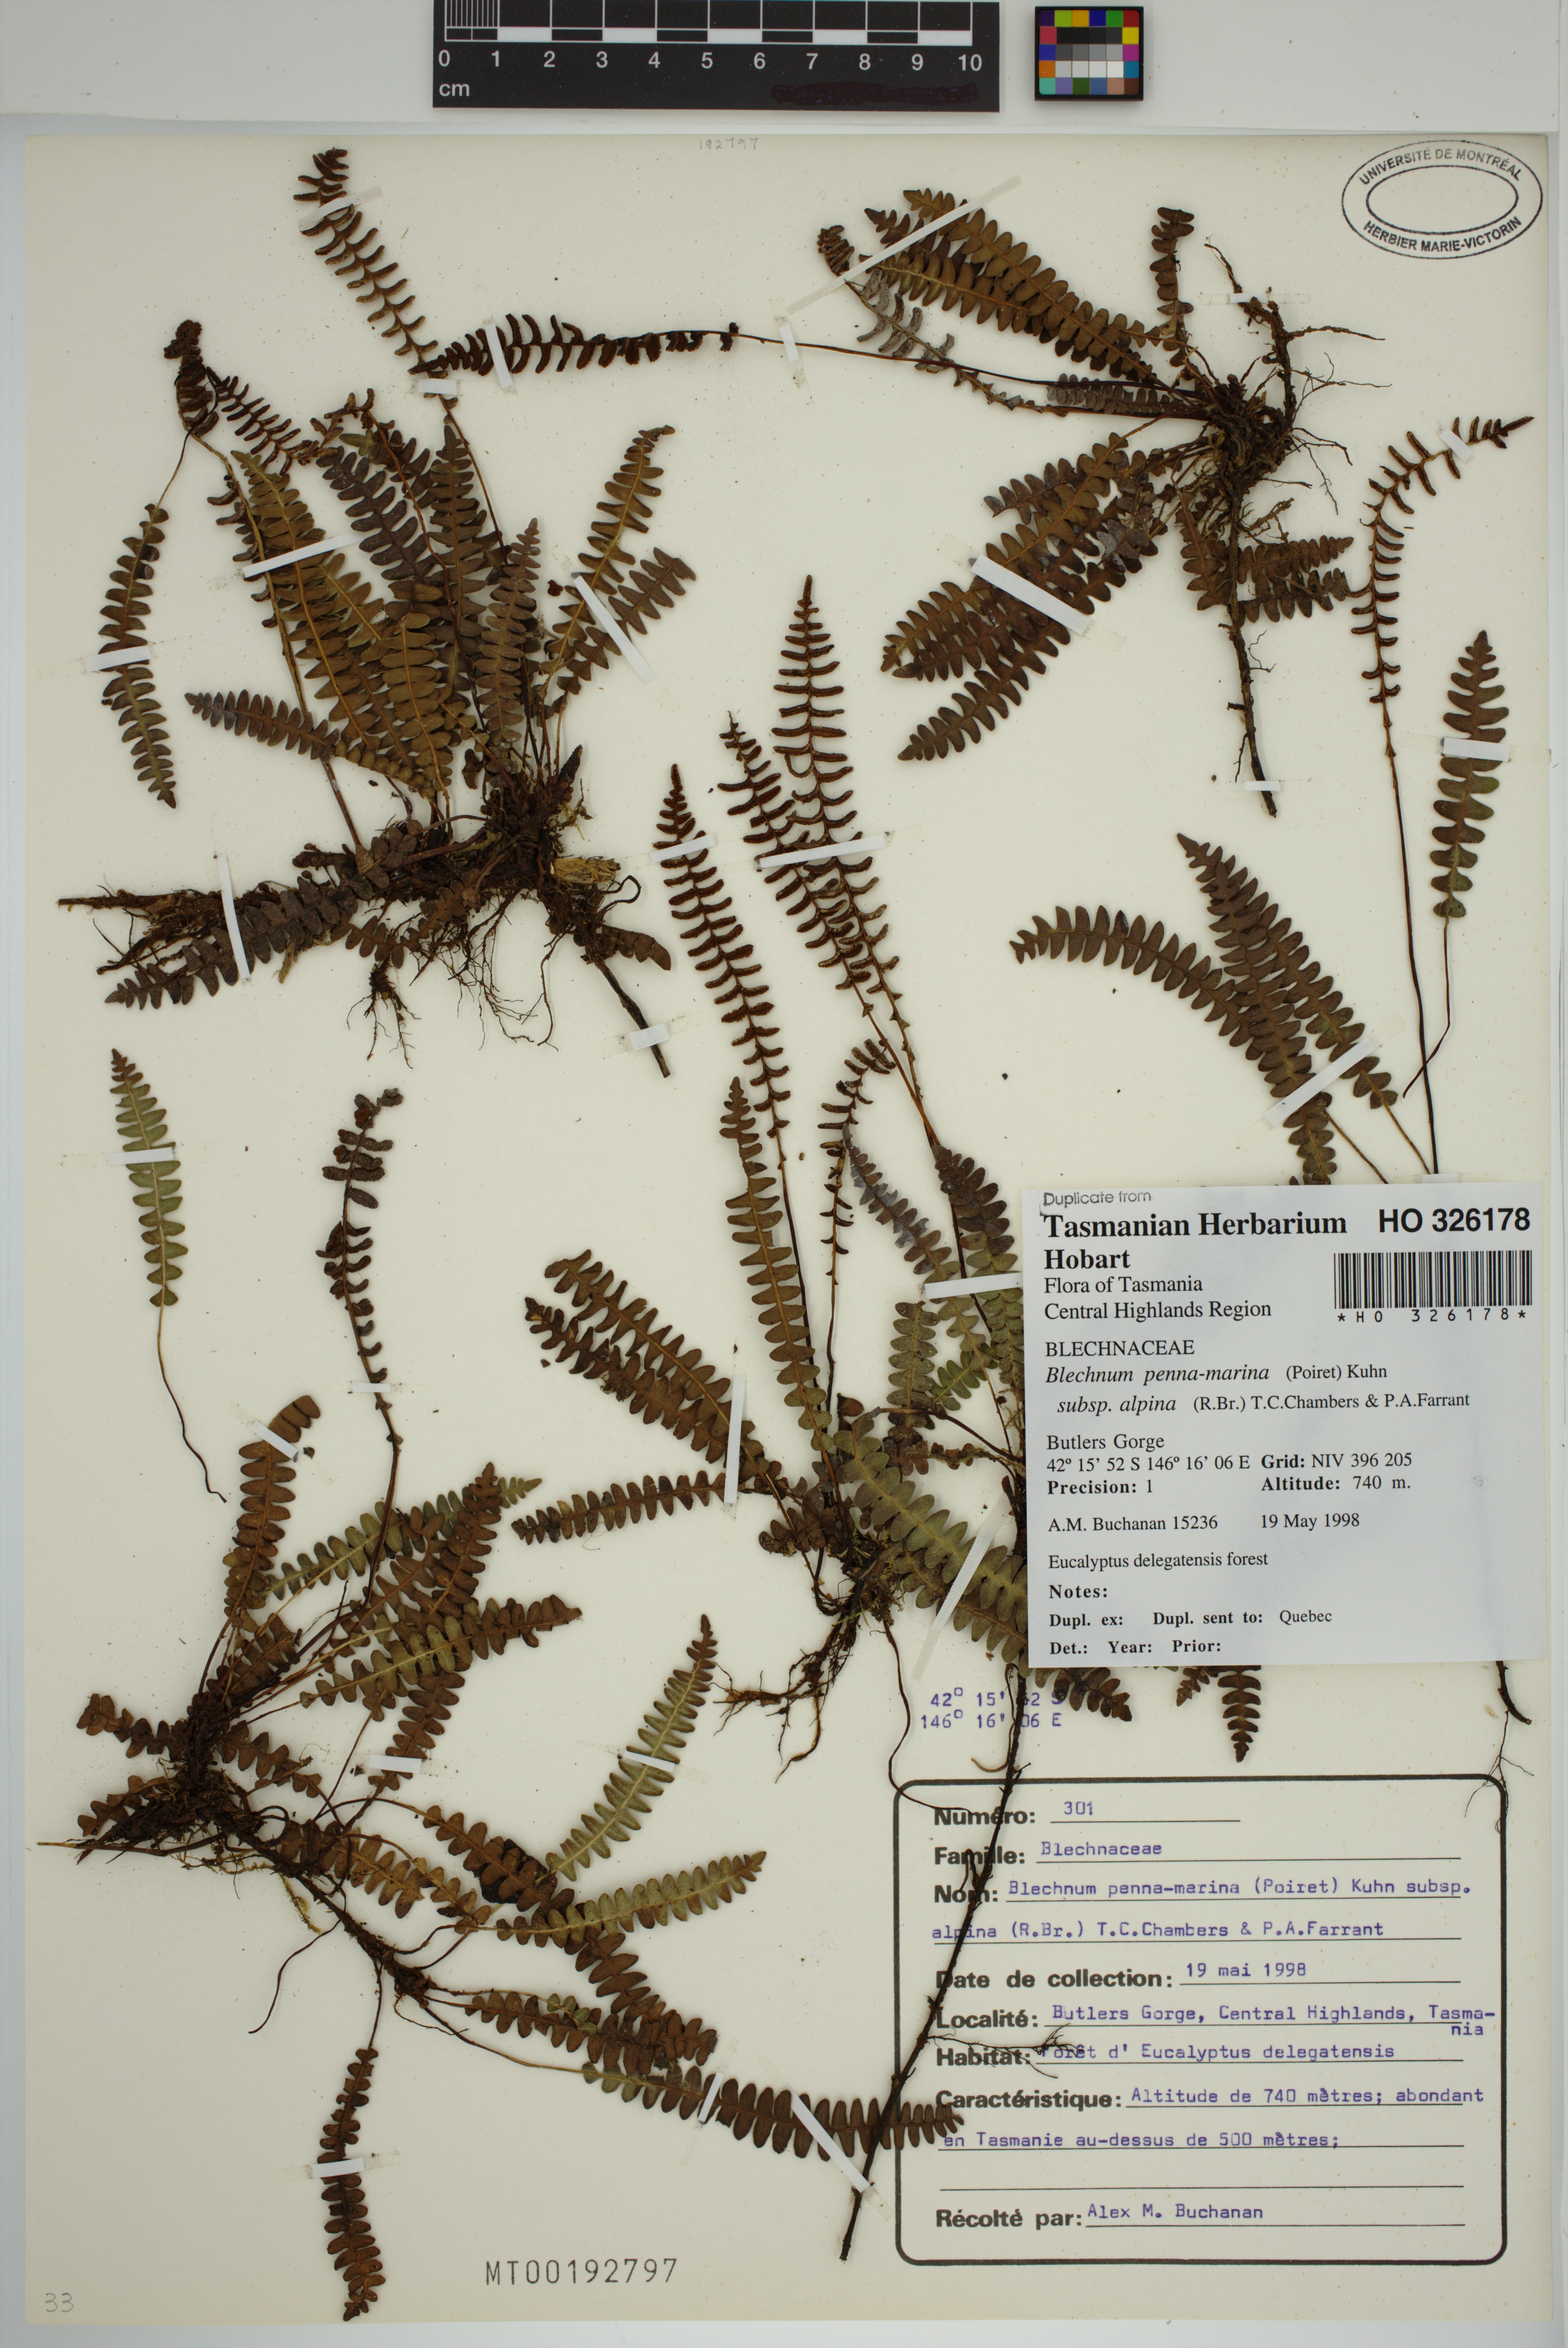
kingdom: Plantae
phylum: Tracheophyta
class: Polypodiopsida
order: Polypodiales
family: Blechnaceae
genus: Austroblechnum
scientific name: Austroblechnum penna-marina
